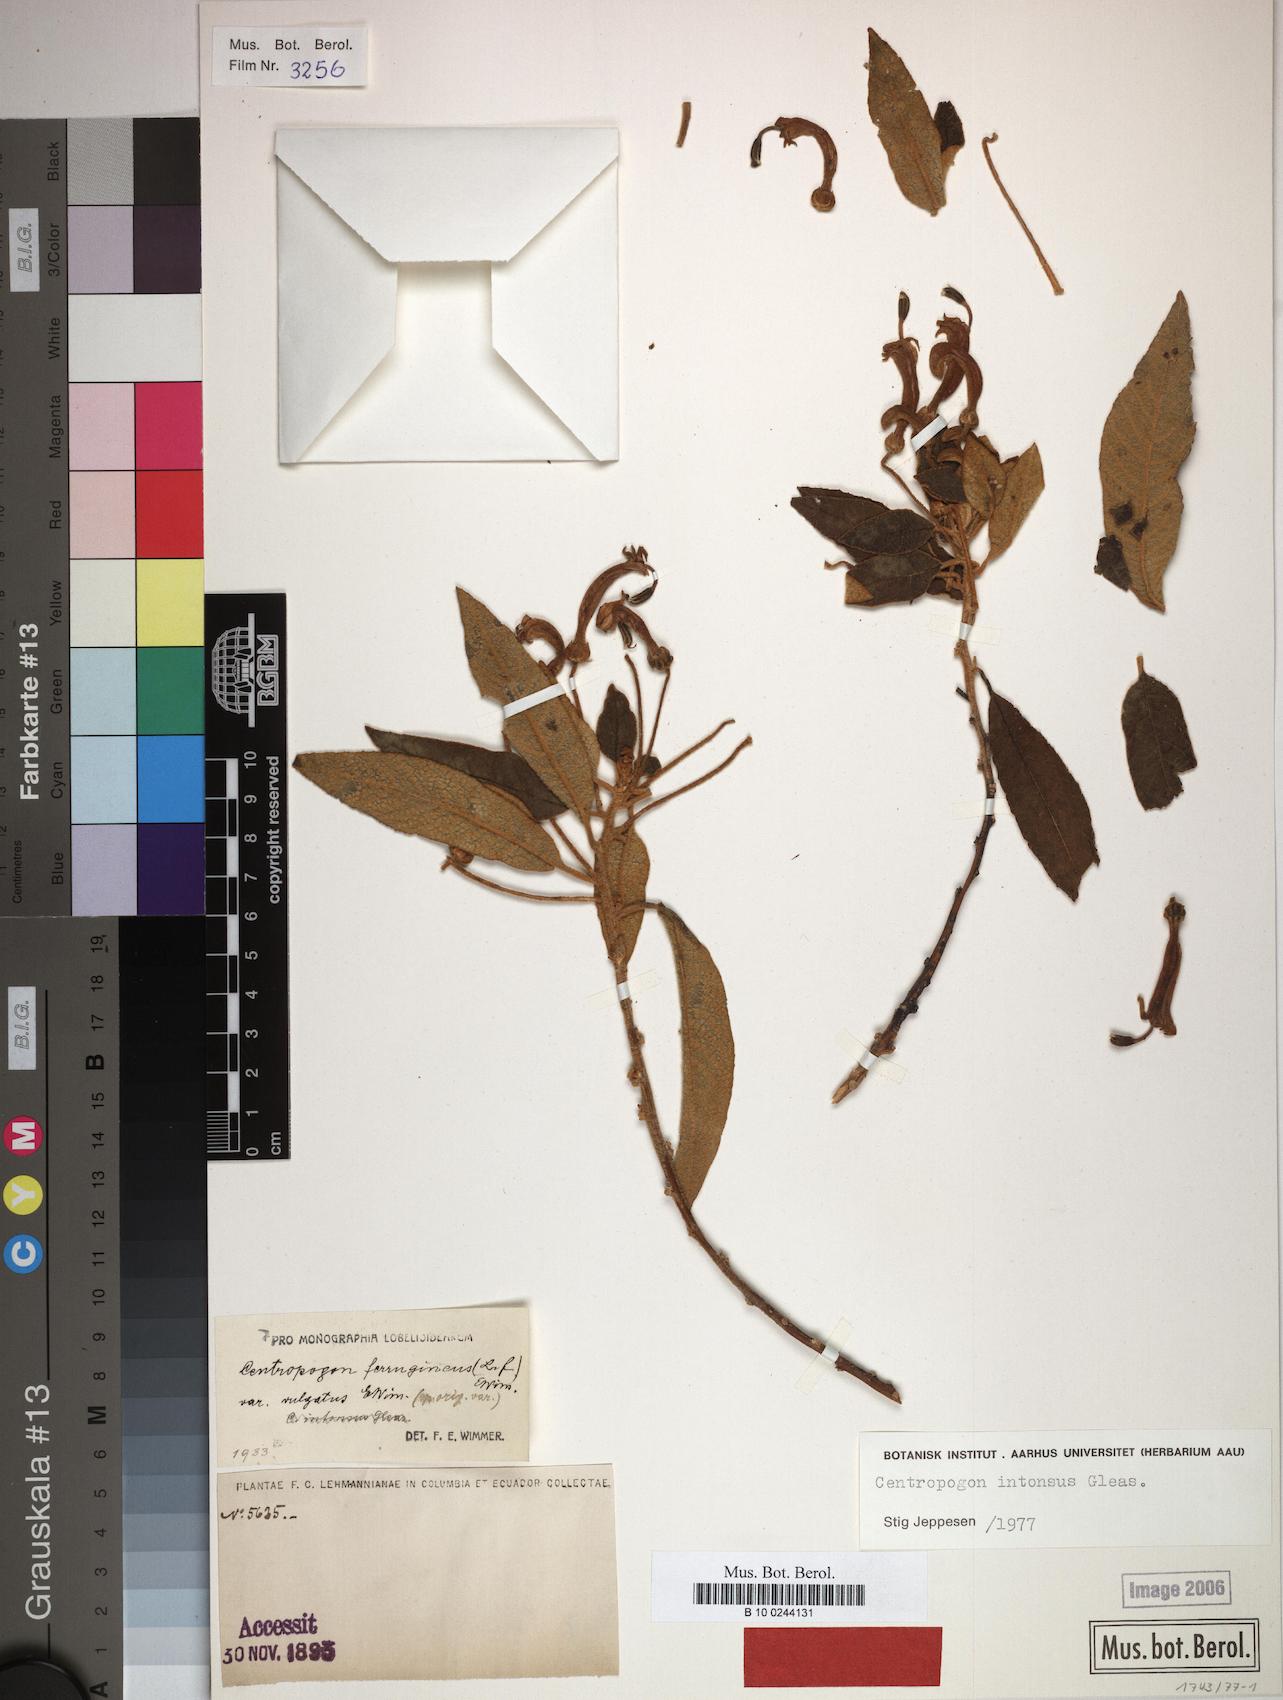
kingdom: Plantae
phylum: Tracheophyta
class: Magnoliopsida
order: Asterales
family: Campanulaceae
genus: Centropogon
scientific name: Centropogon intonsus
